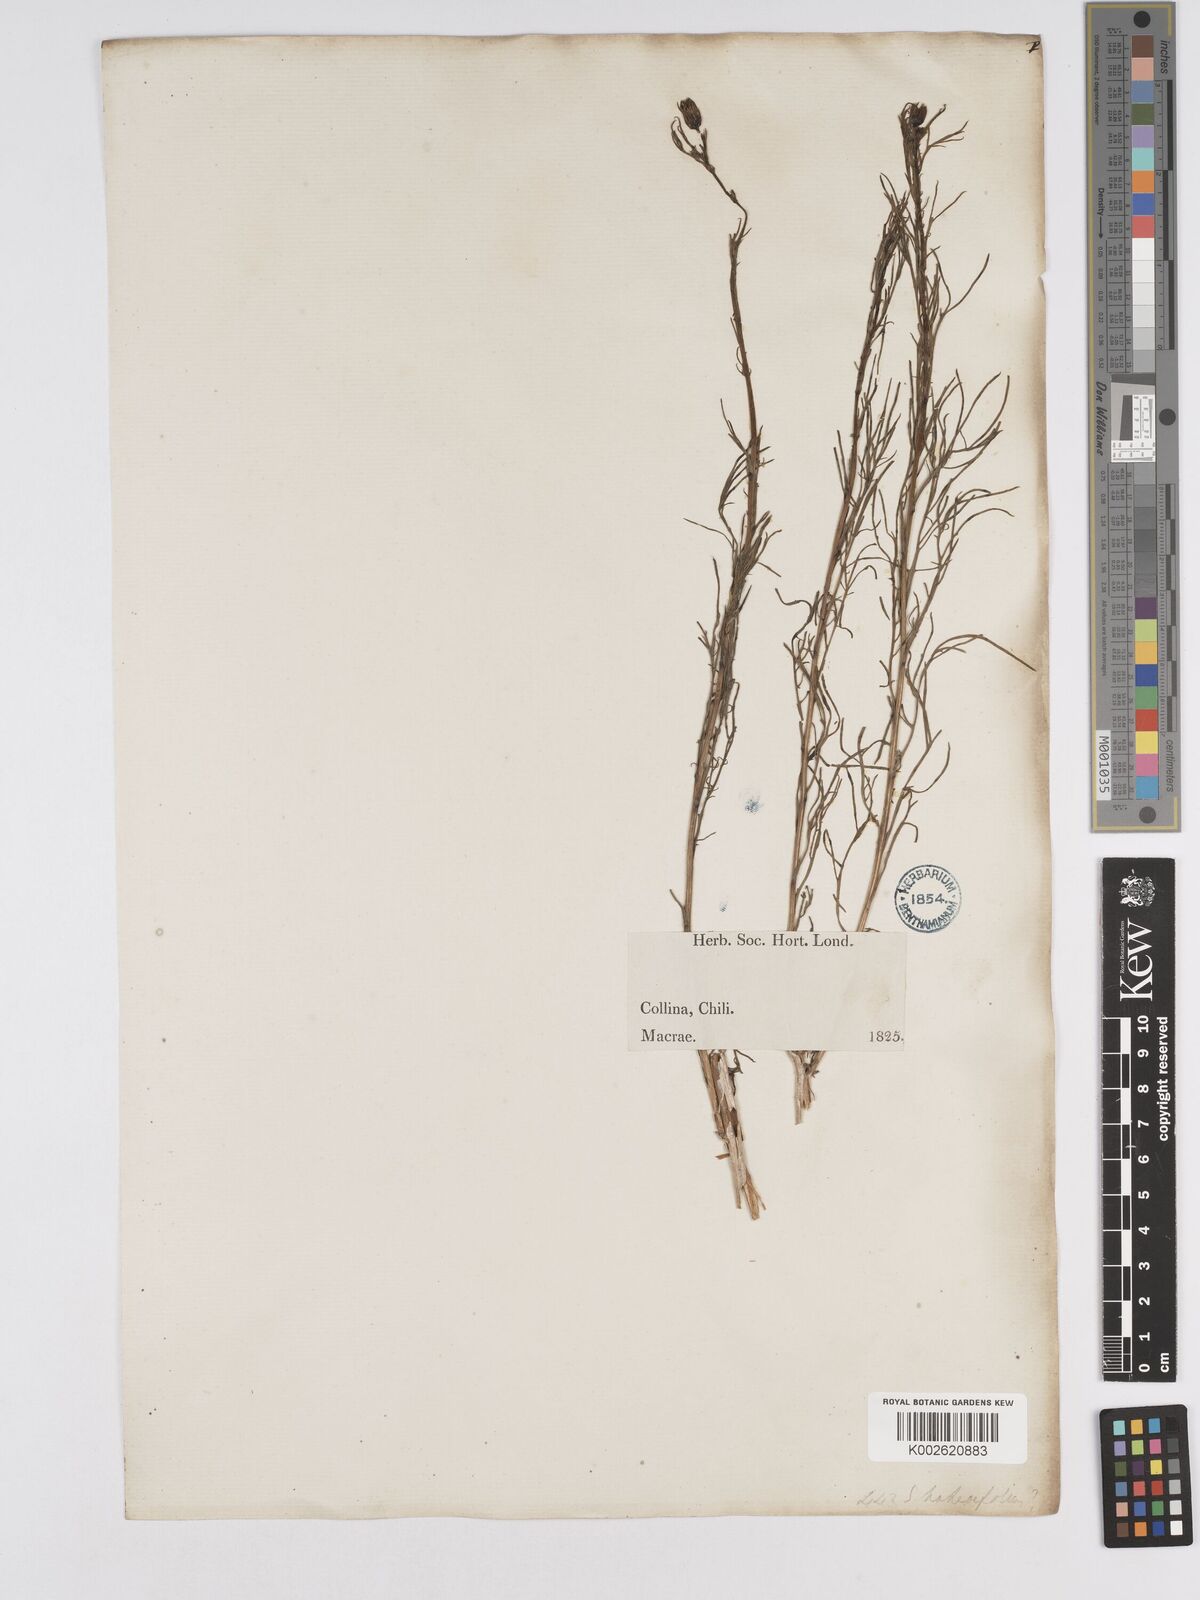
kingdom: Plantae
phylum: Tracheophyta
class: Magnoliopsida
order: Asterales
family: Asteraceae
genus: Senecio
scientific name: Senecio hakeifolius
